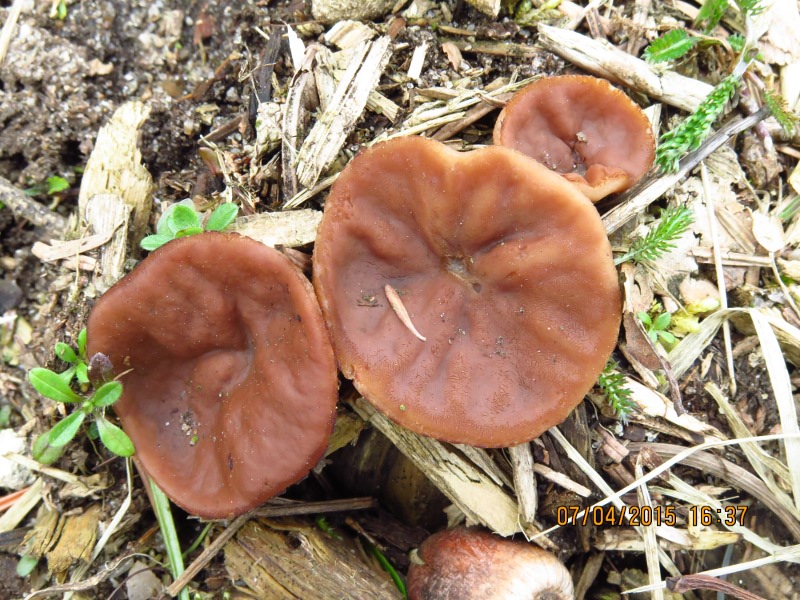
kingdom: Fungi
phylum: Ascomycota
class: Pezizomycetes
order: Pezizales
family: Discinaceae
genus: Discina
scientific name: Discina ancilis
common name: udbredt stenmorkel
